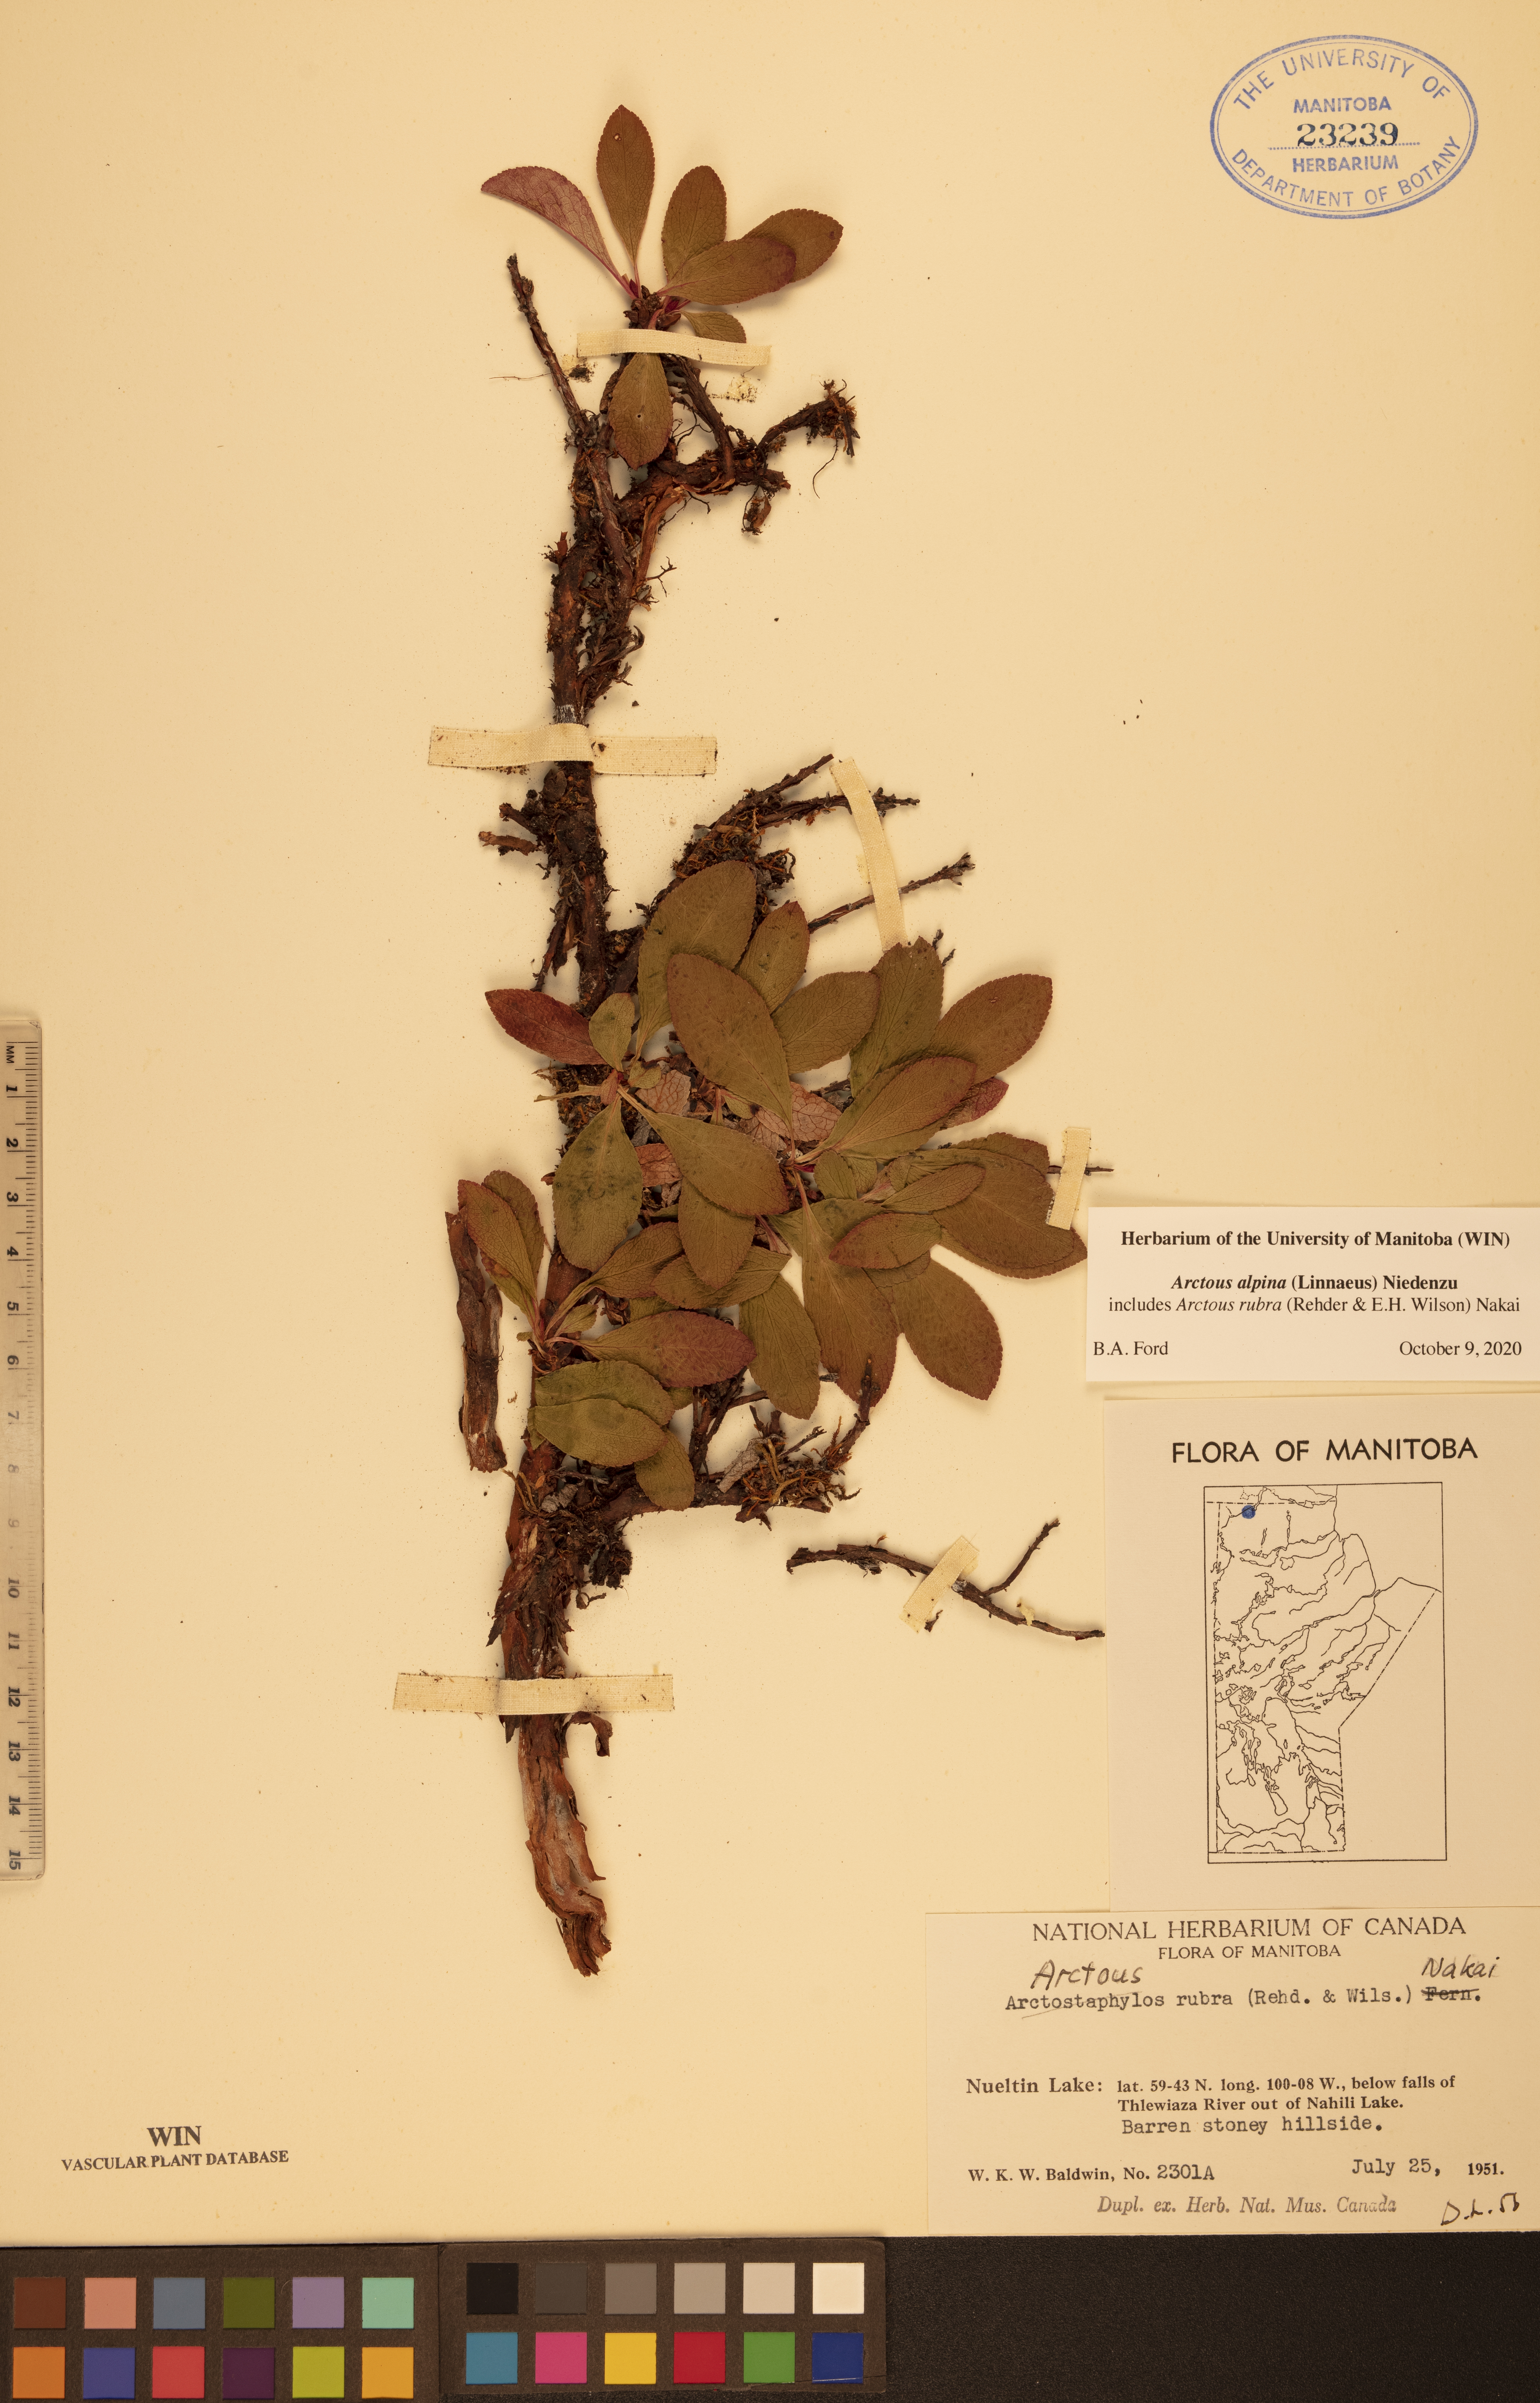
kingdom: Plantae
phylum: Tracheophyta
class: Magnoliopsida
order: Ericales
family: Ericaceae
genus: Arctostaphylos
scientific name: Arctostaphylos alpinus
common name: Alpine bearberry
